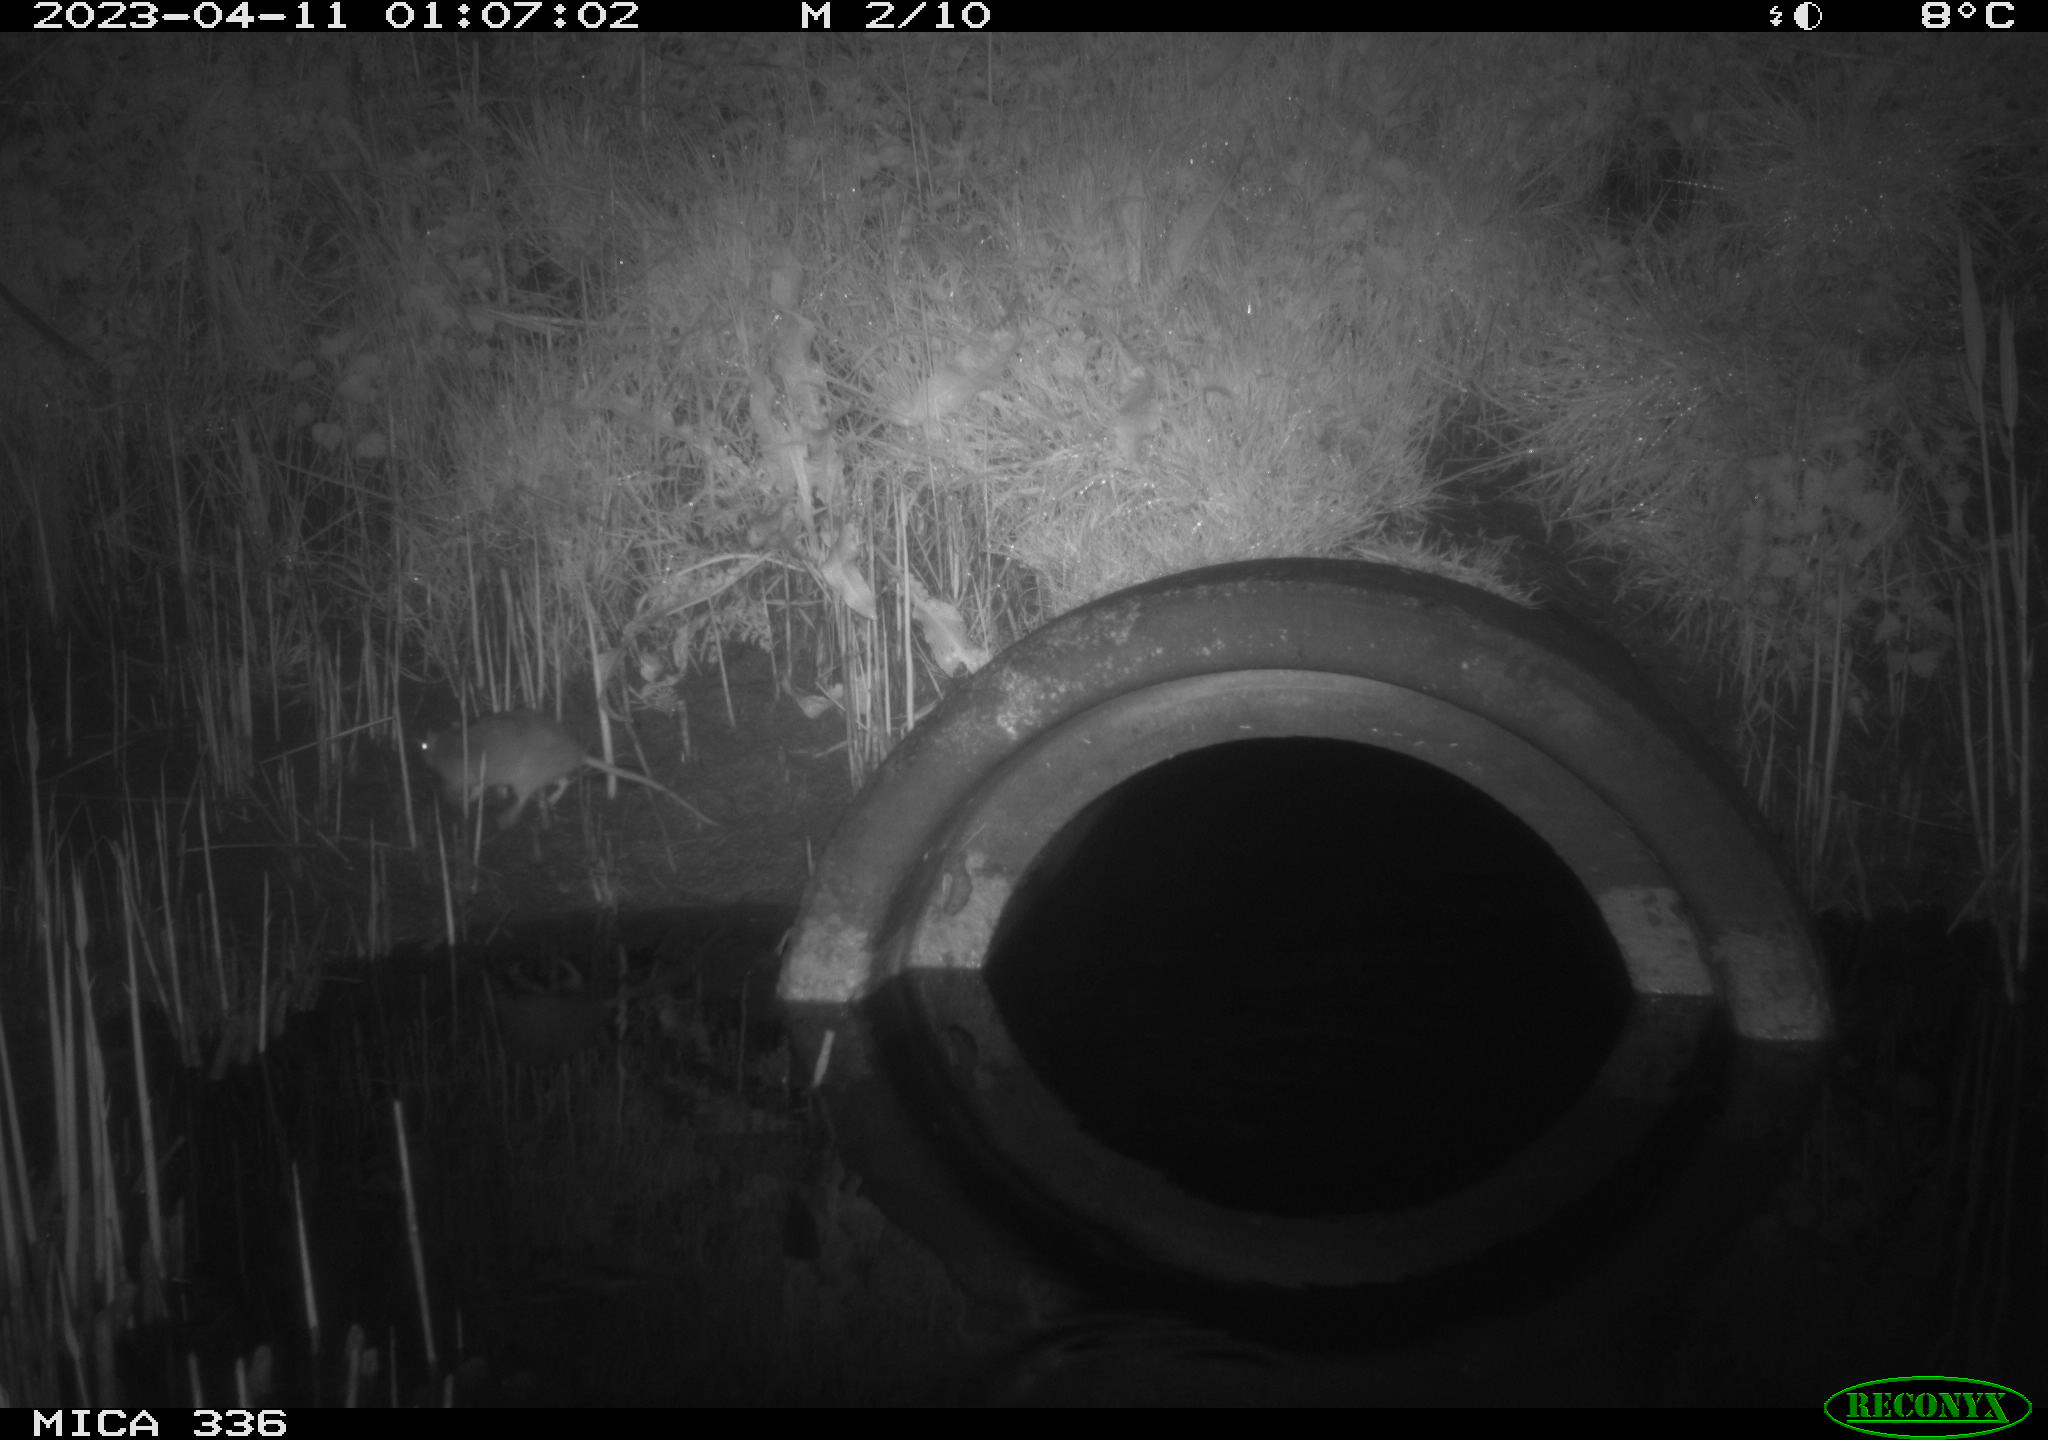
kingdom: Animalia
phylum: Chordata
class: Mammalia
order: Rodentia
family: Muridae
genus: Rattus
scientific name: Rattus norvegicus
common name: Brown rat
